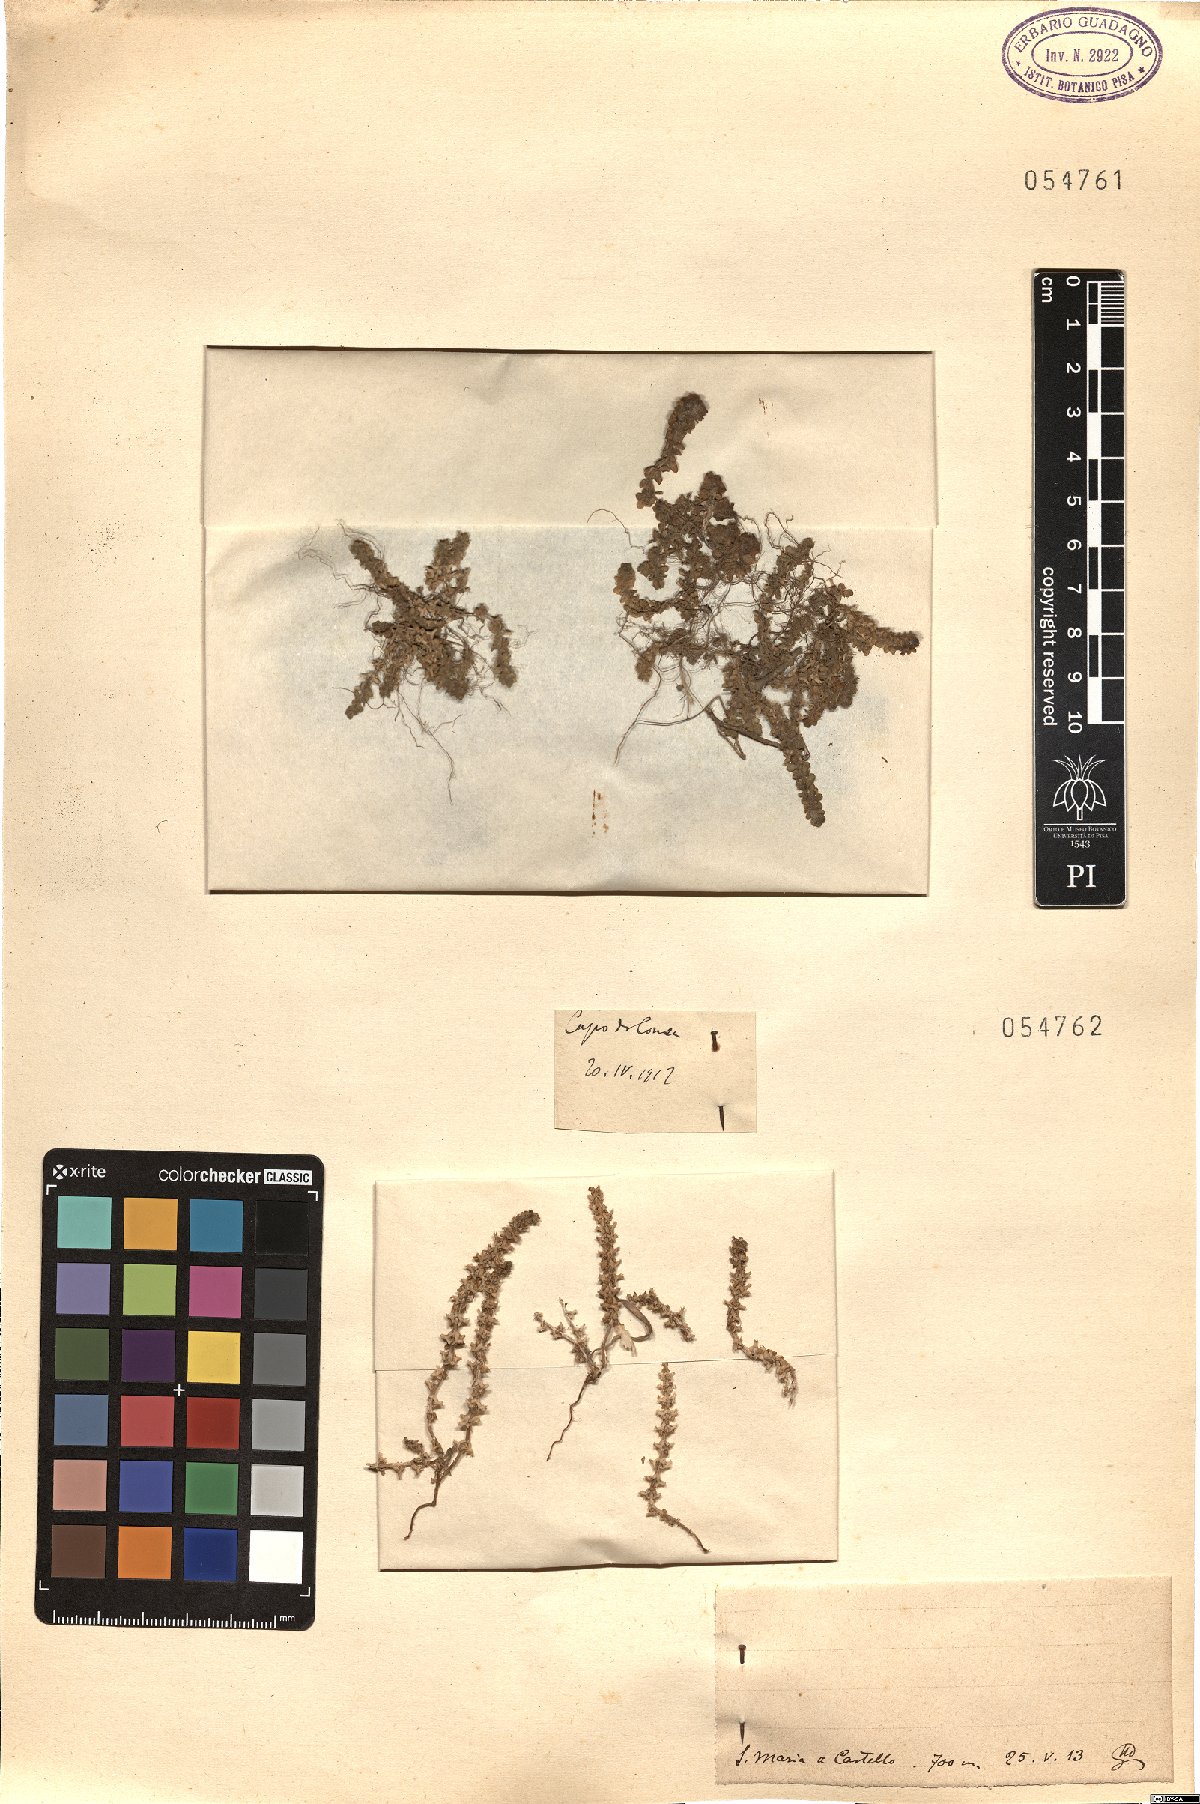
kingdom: Animalia
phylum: Arthropoda
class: Insecta
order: Diptera
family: Psychodidae
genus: Vaillantia
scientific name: Vaillantia
